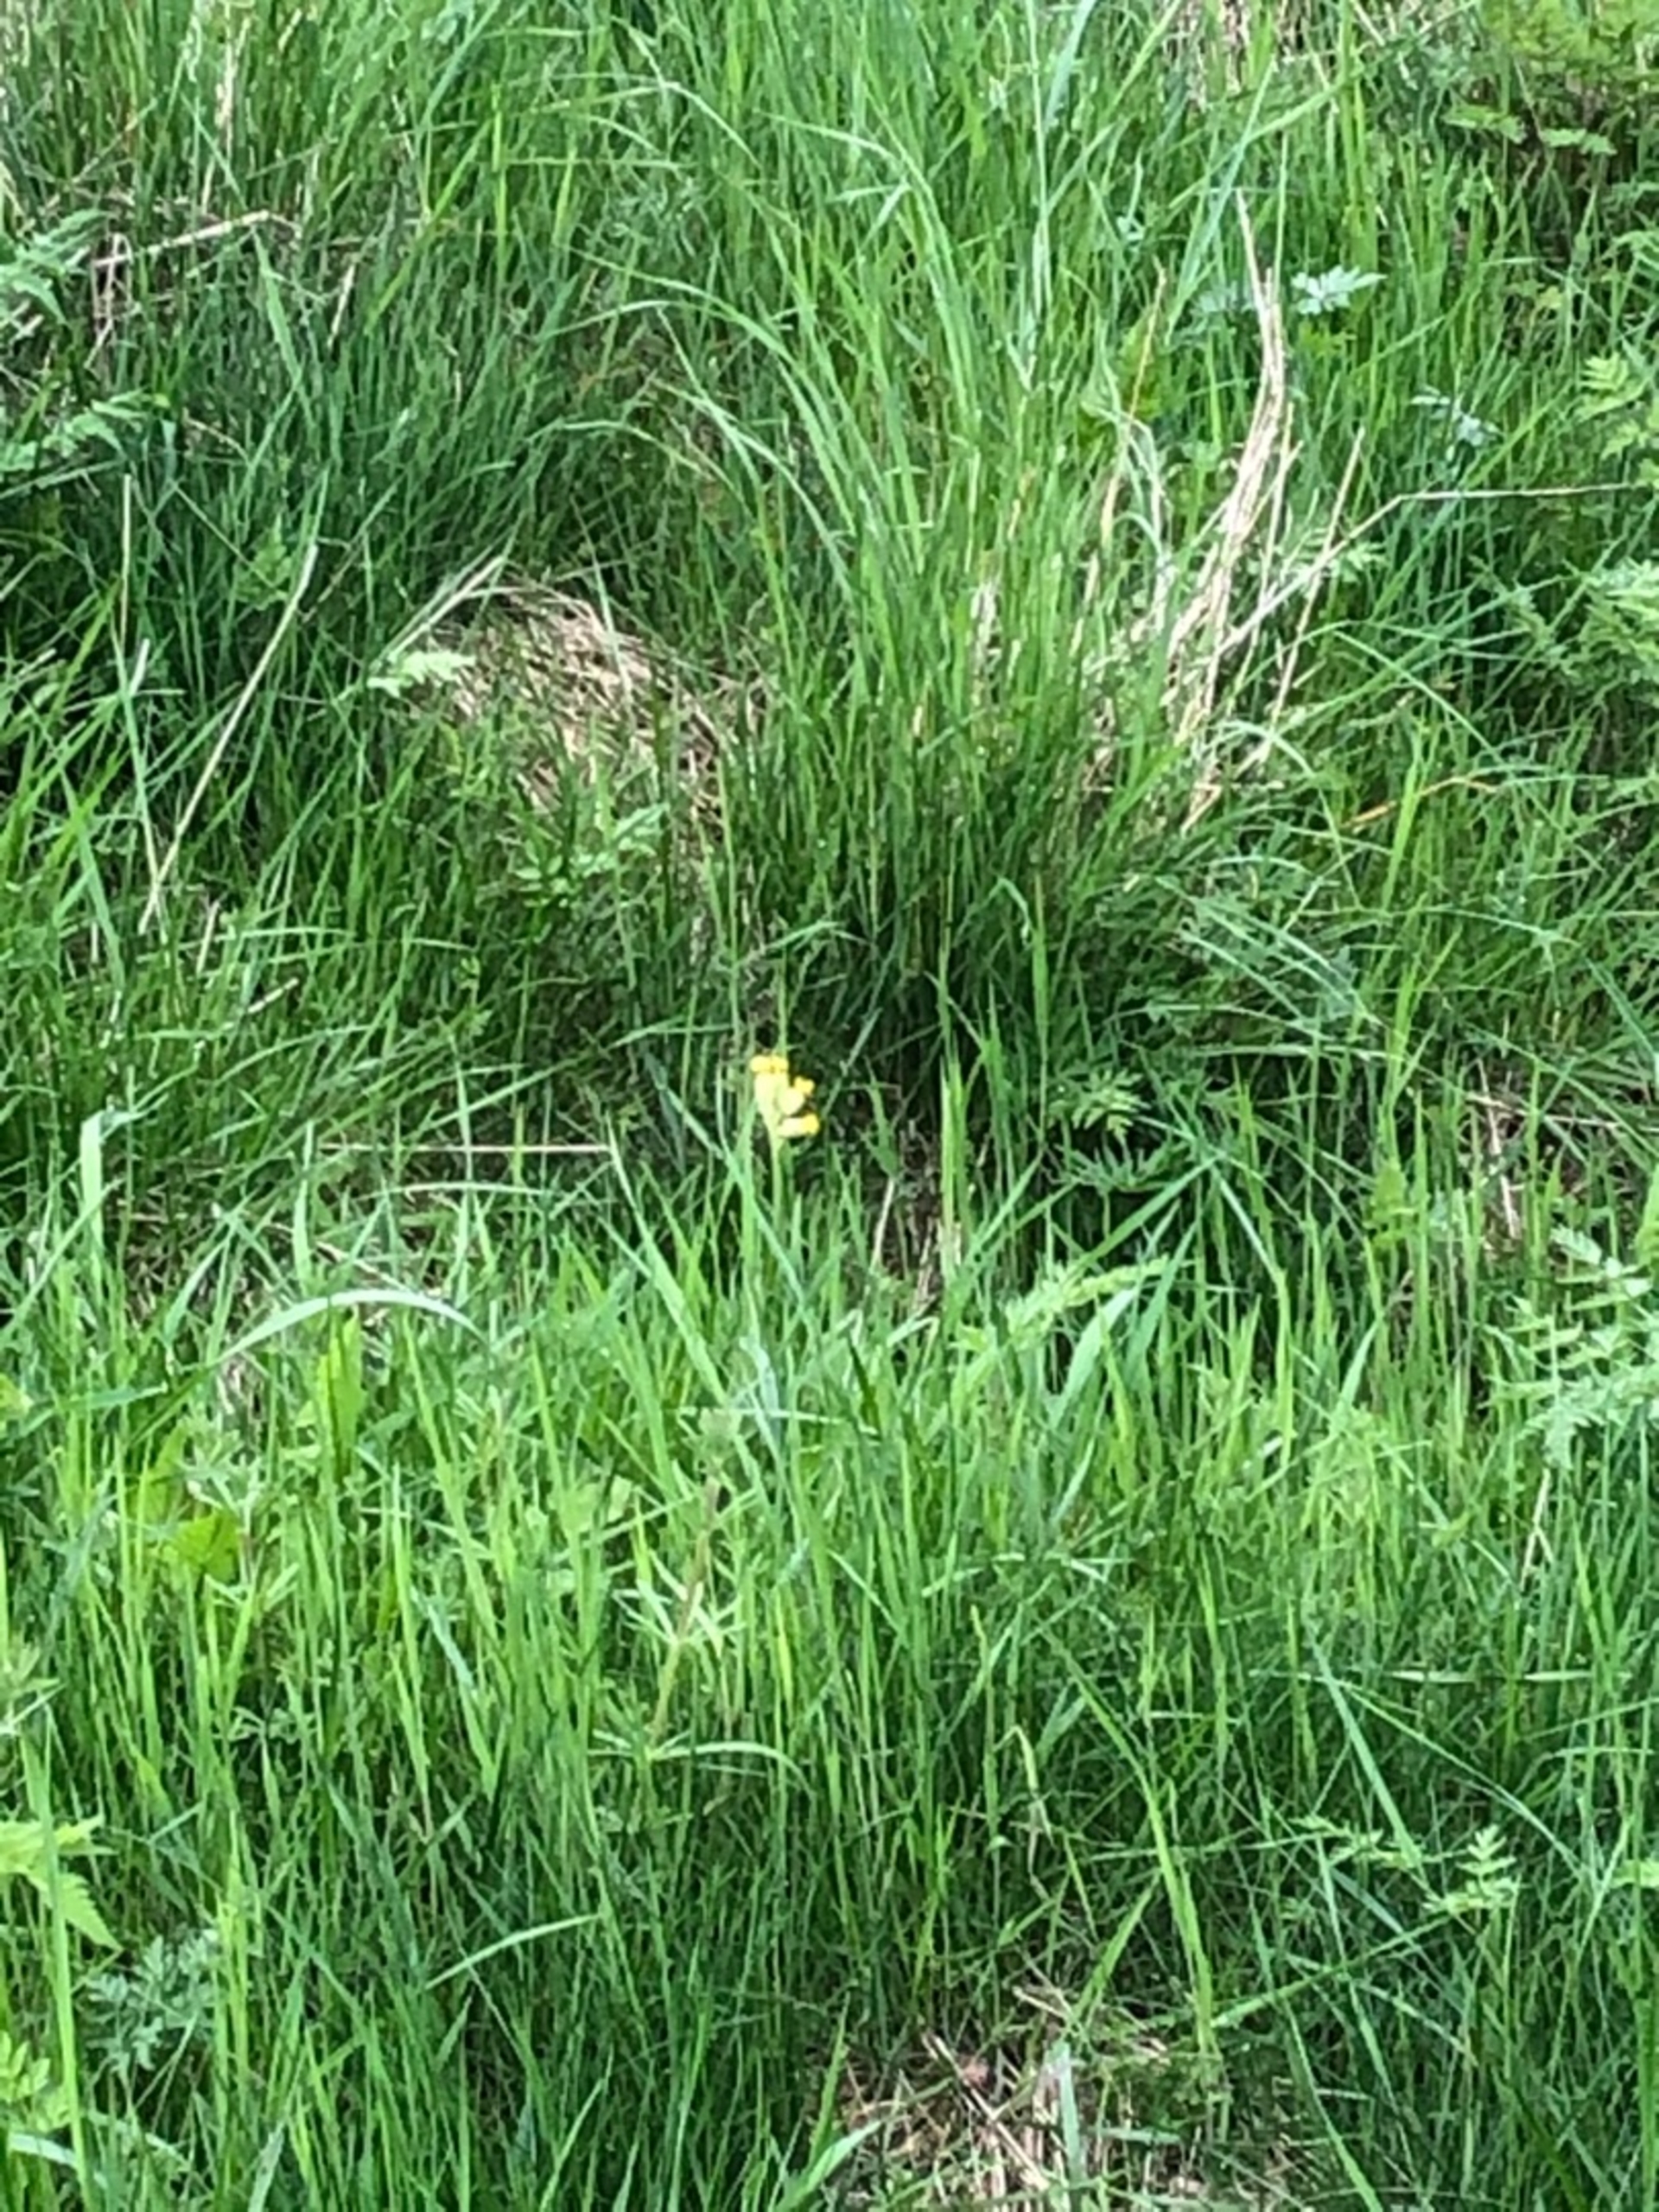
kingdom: Plantae
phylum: Tracheophyta
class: Magnoliopsida
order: Ericales
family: Primulaceae
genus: Primula
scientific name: Primula veris
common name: Hulkravet kodriver
